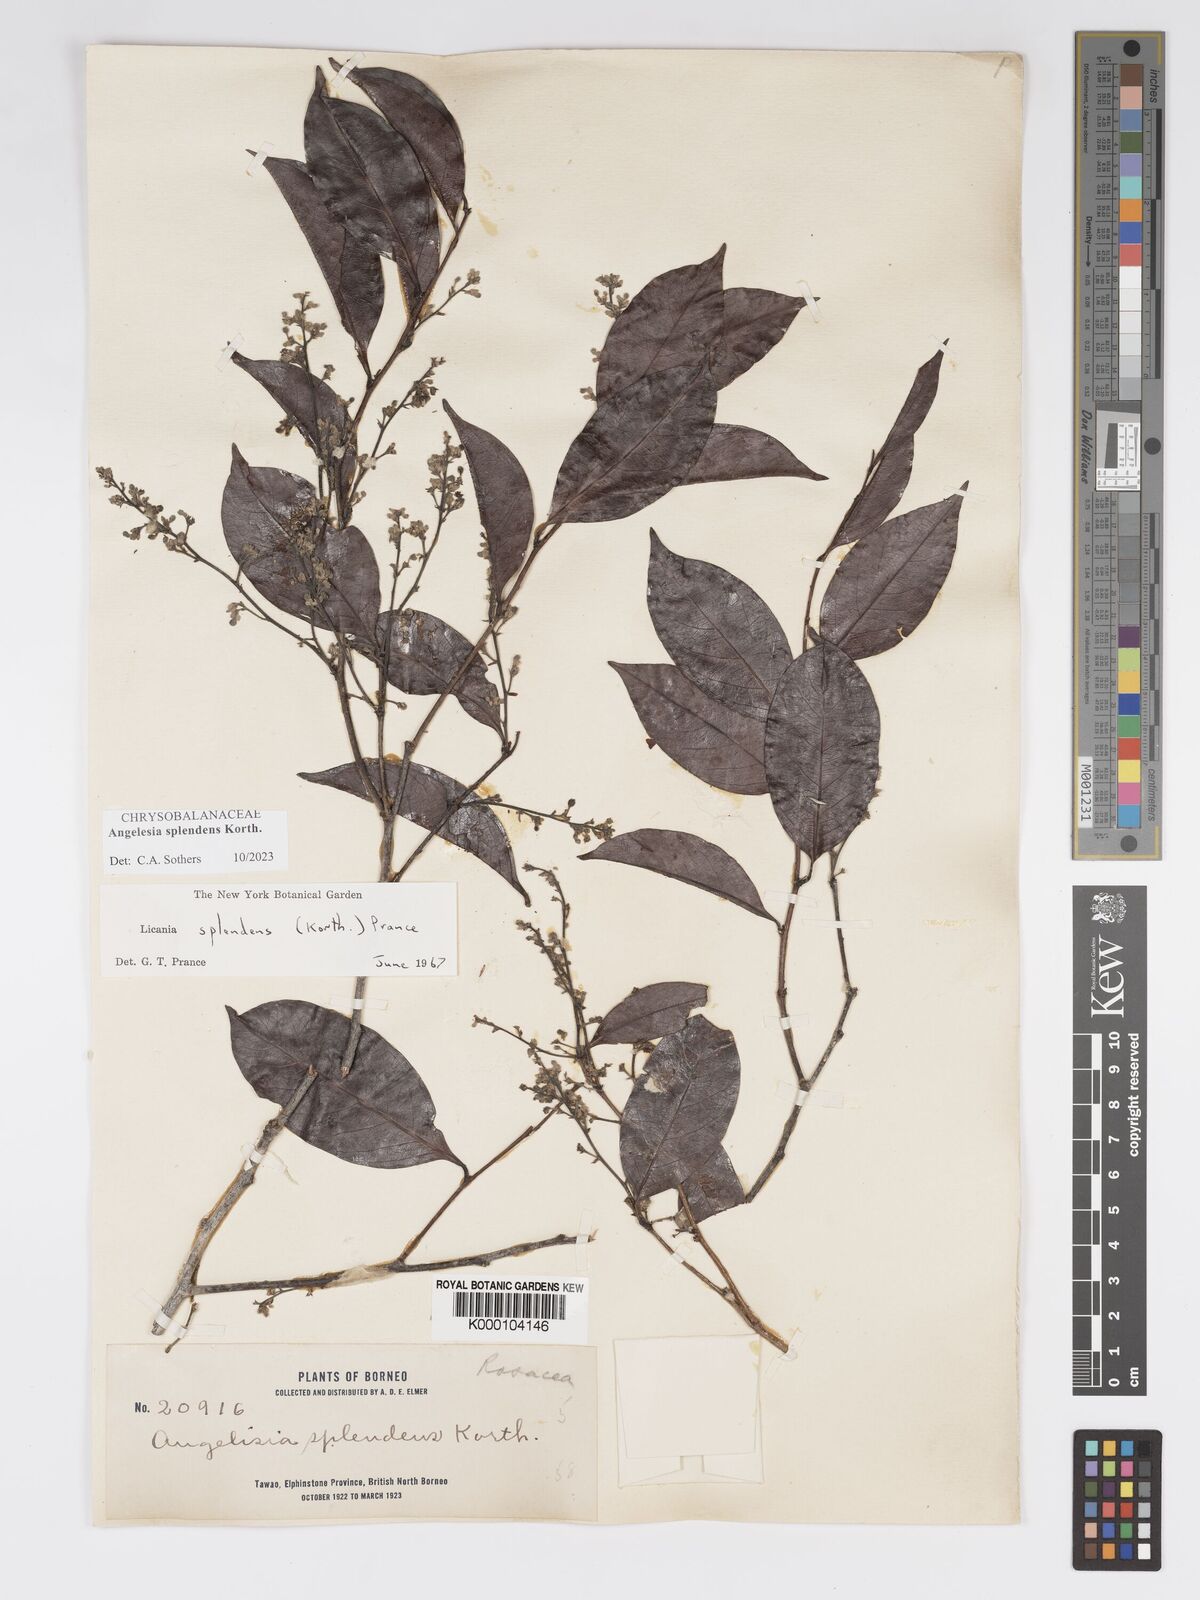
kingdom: Plantae
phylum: Tracheophyta
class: Magnoliopsida
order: Malpighiales
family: Chrysobalanaceae
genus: Angelesia
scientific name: Angelesia splendens
